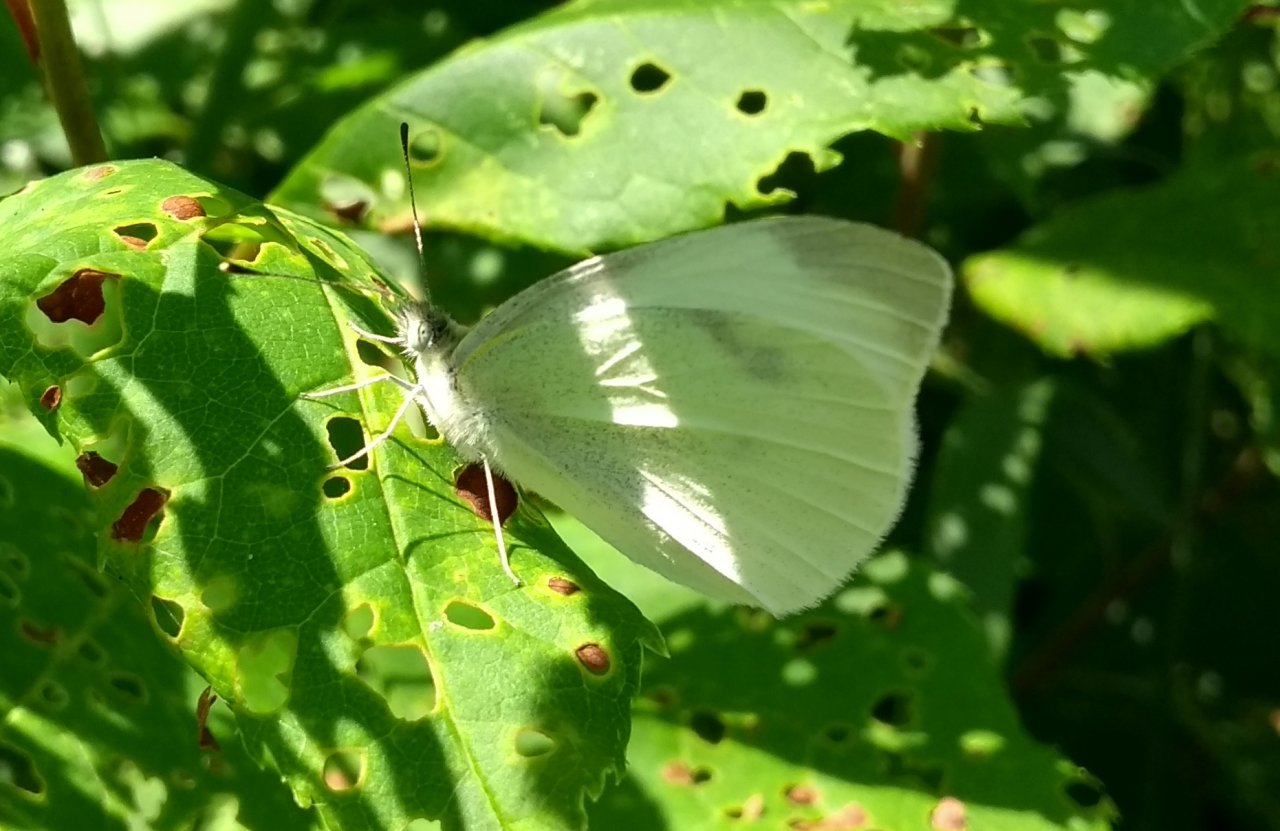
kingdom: Animalia
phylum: Arthropoda
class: Insecta
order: Lepidoptera
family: Pieridae
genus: Pieris
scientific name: Pieris rapae
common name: Cabbage White
